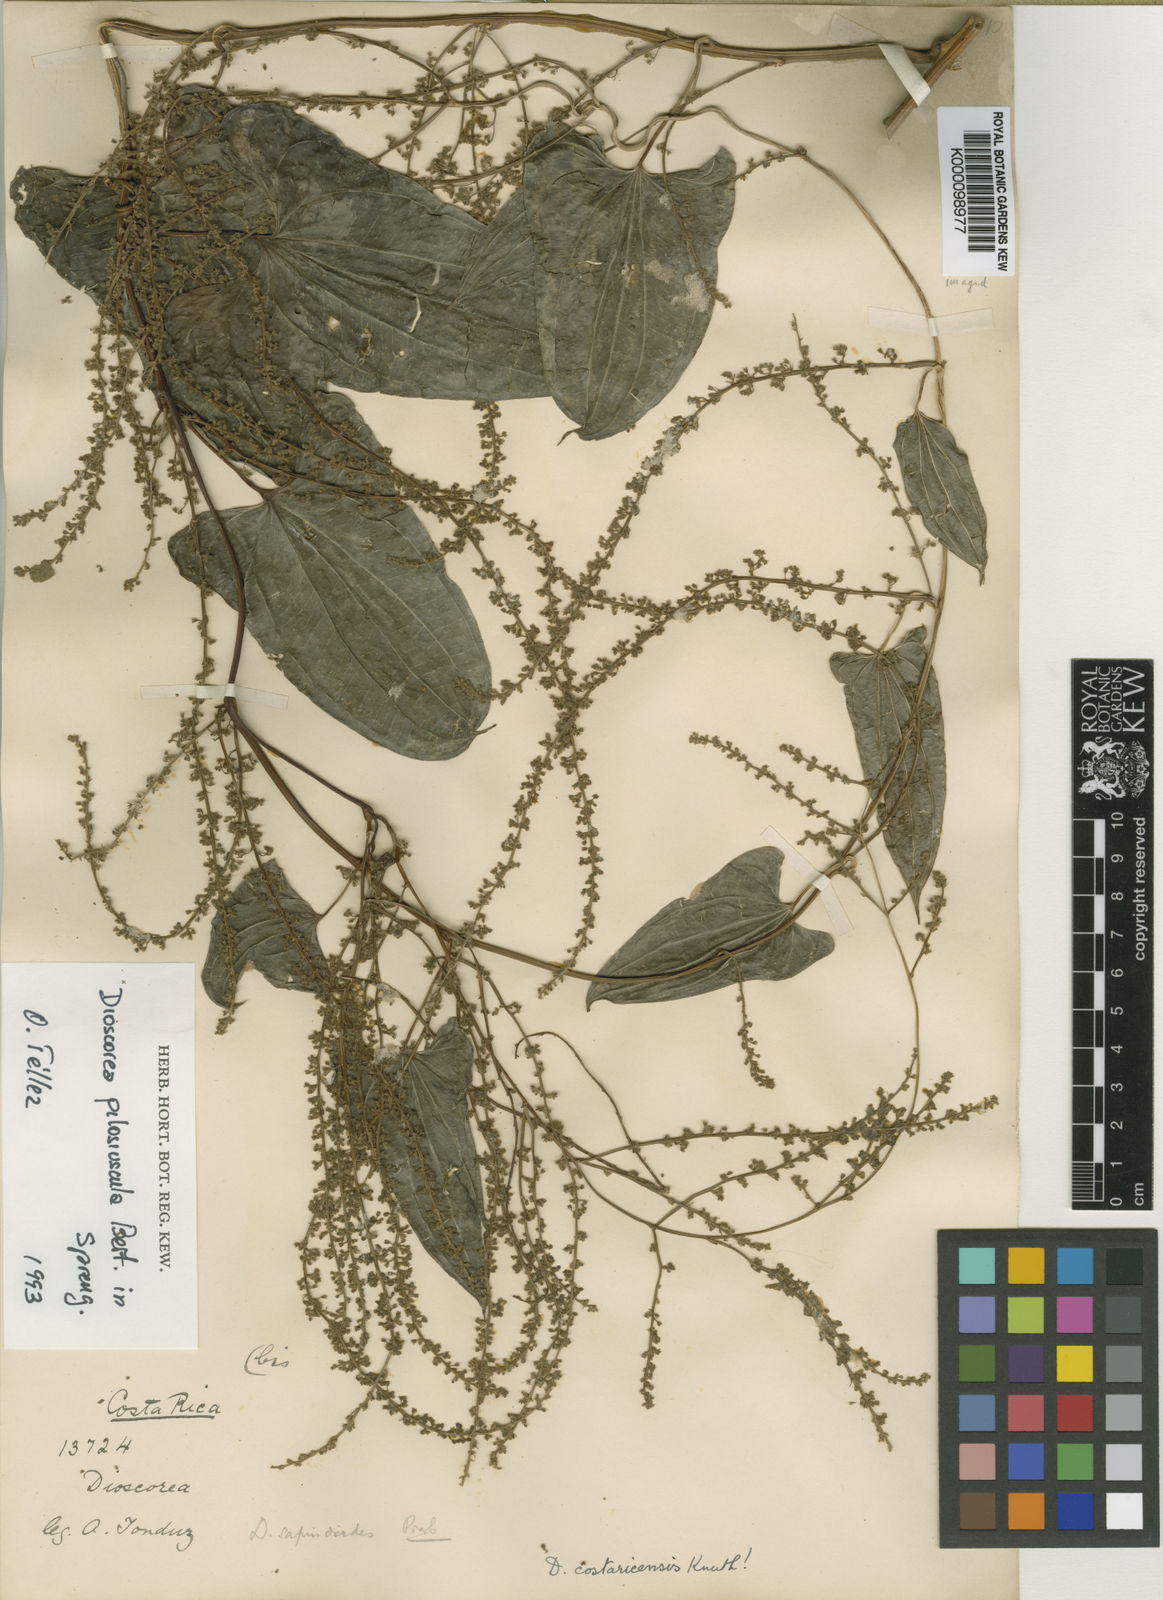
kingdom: Plantae
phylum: Tracheophyta
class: Liliopsida
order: Dioscoreales
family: Dioscoreaceae
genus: Dioscorea
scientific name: Dioscorea
